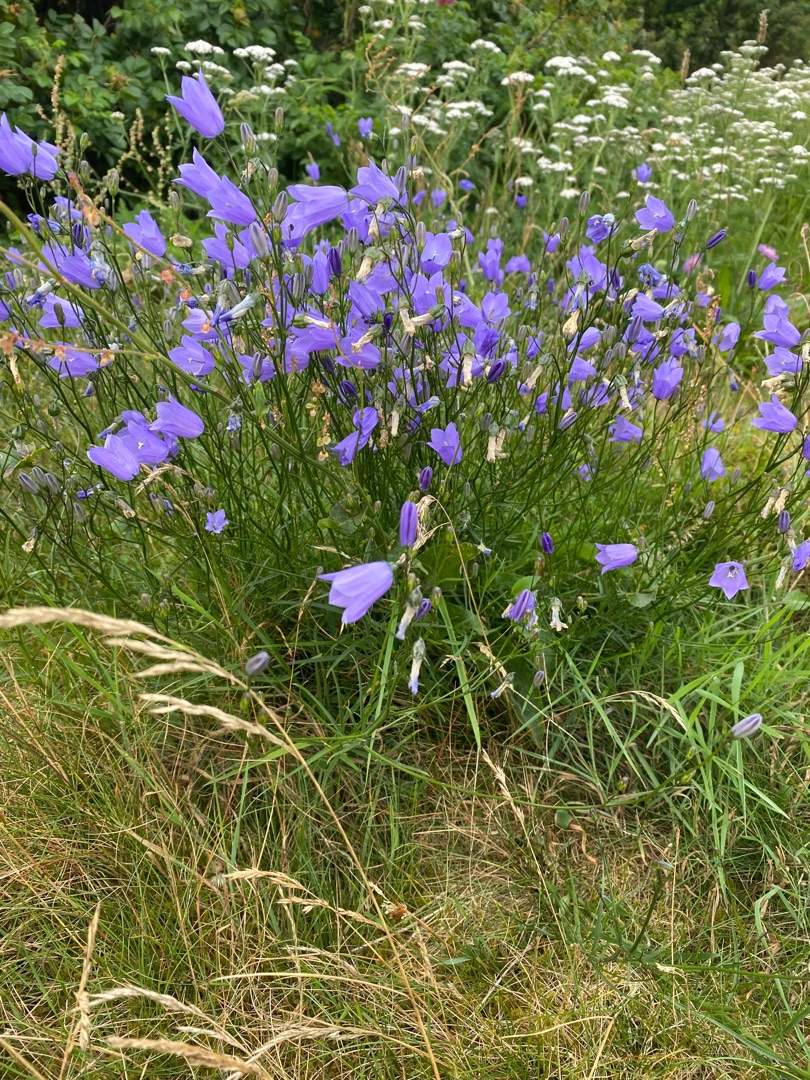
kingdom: Plantae
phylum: Tracheophyta
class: Magnoliopsida
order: Asterales
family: Campanulaceae
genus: Campanula
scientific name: Campanula rotundifolia
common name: Liden klokke
